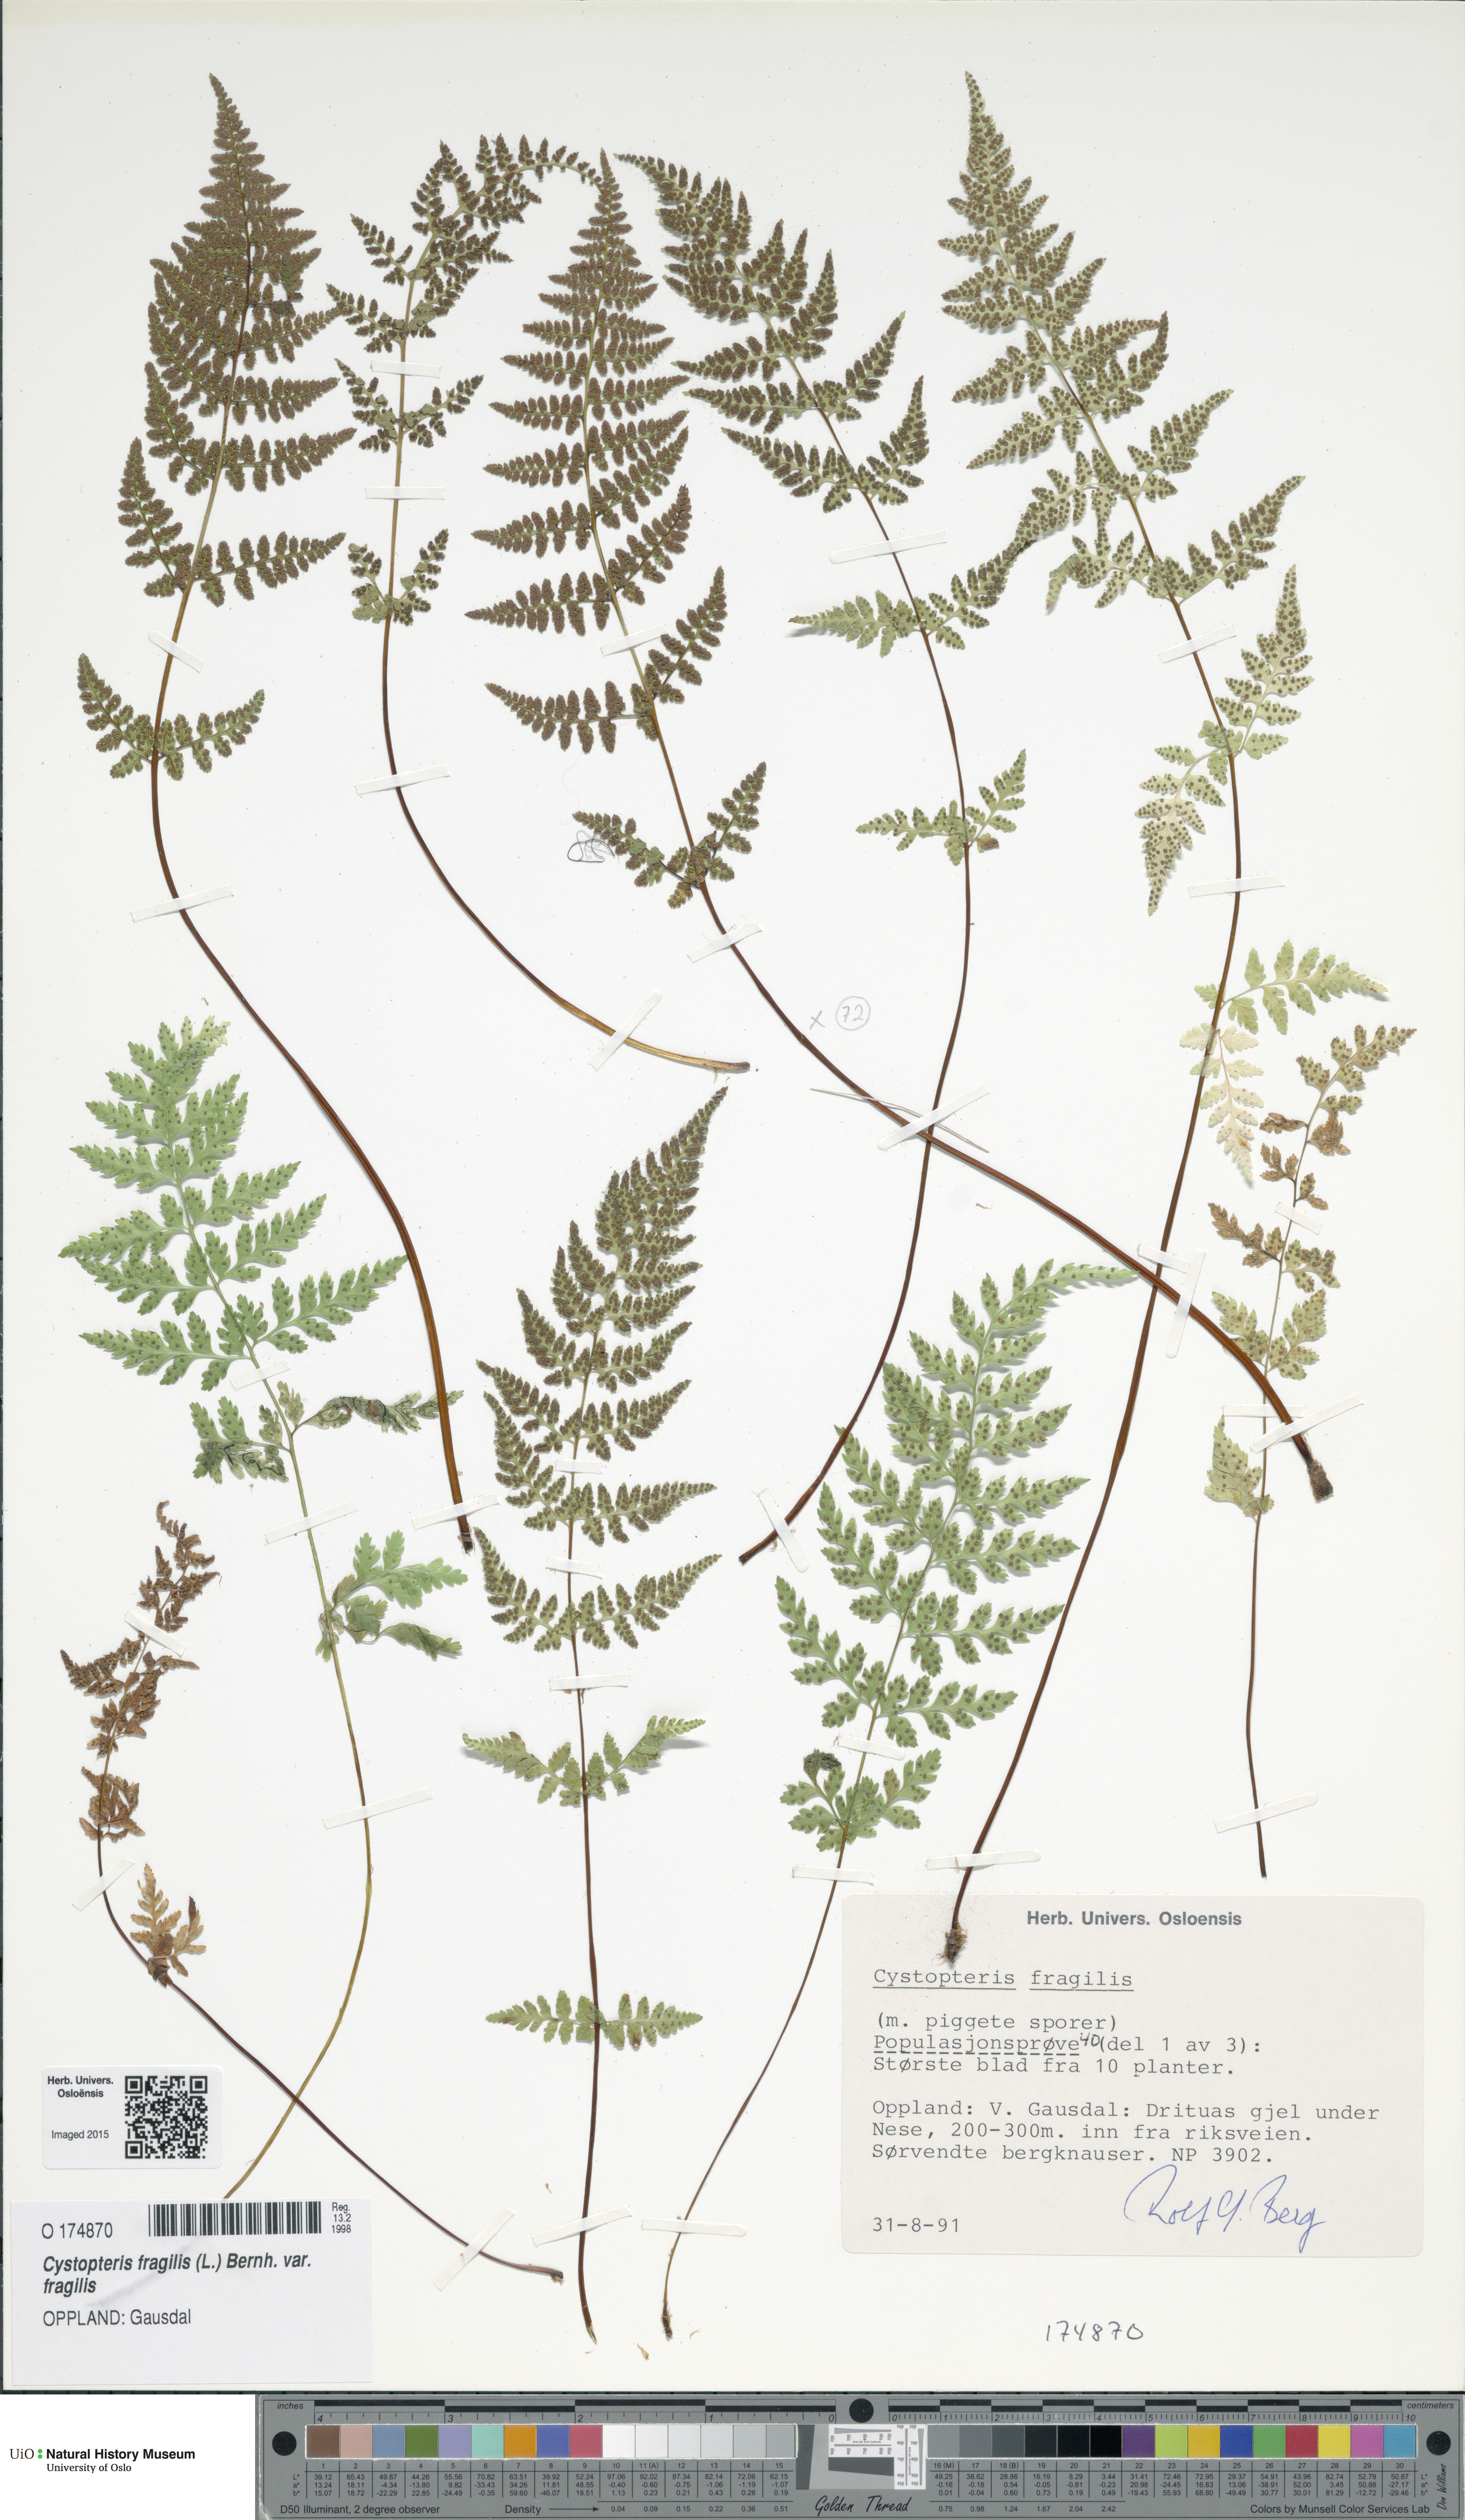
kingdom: Plantae
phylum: Tracheophyta
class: Polypodiopsida
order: Polypodiales
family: Cystopteridaceae
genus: Cystopteris
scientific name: Cystopteris fragilis
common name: Brittle bladder fern
